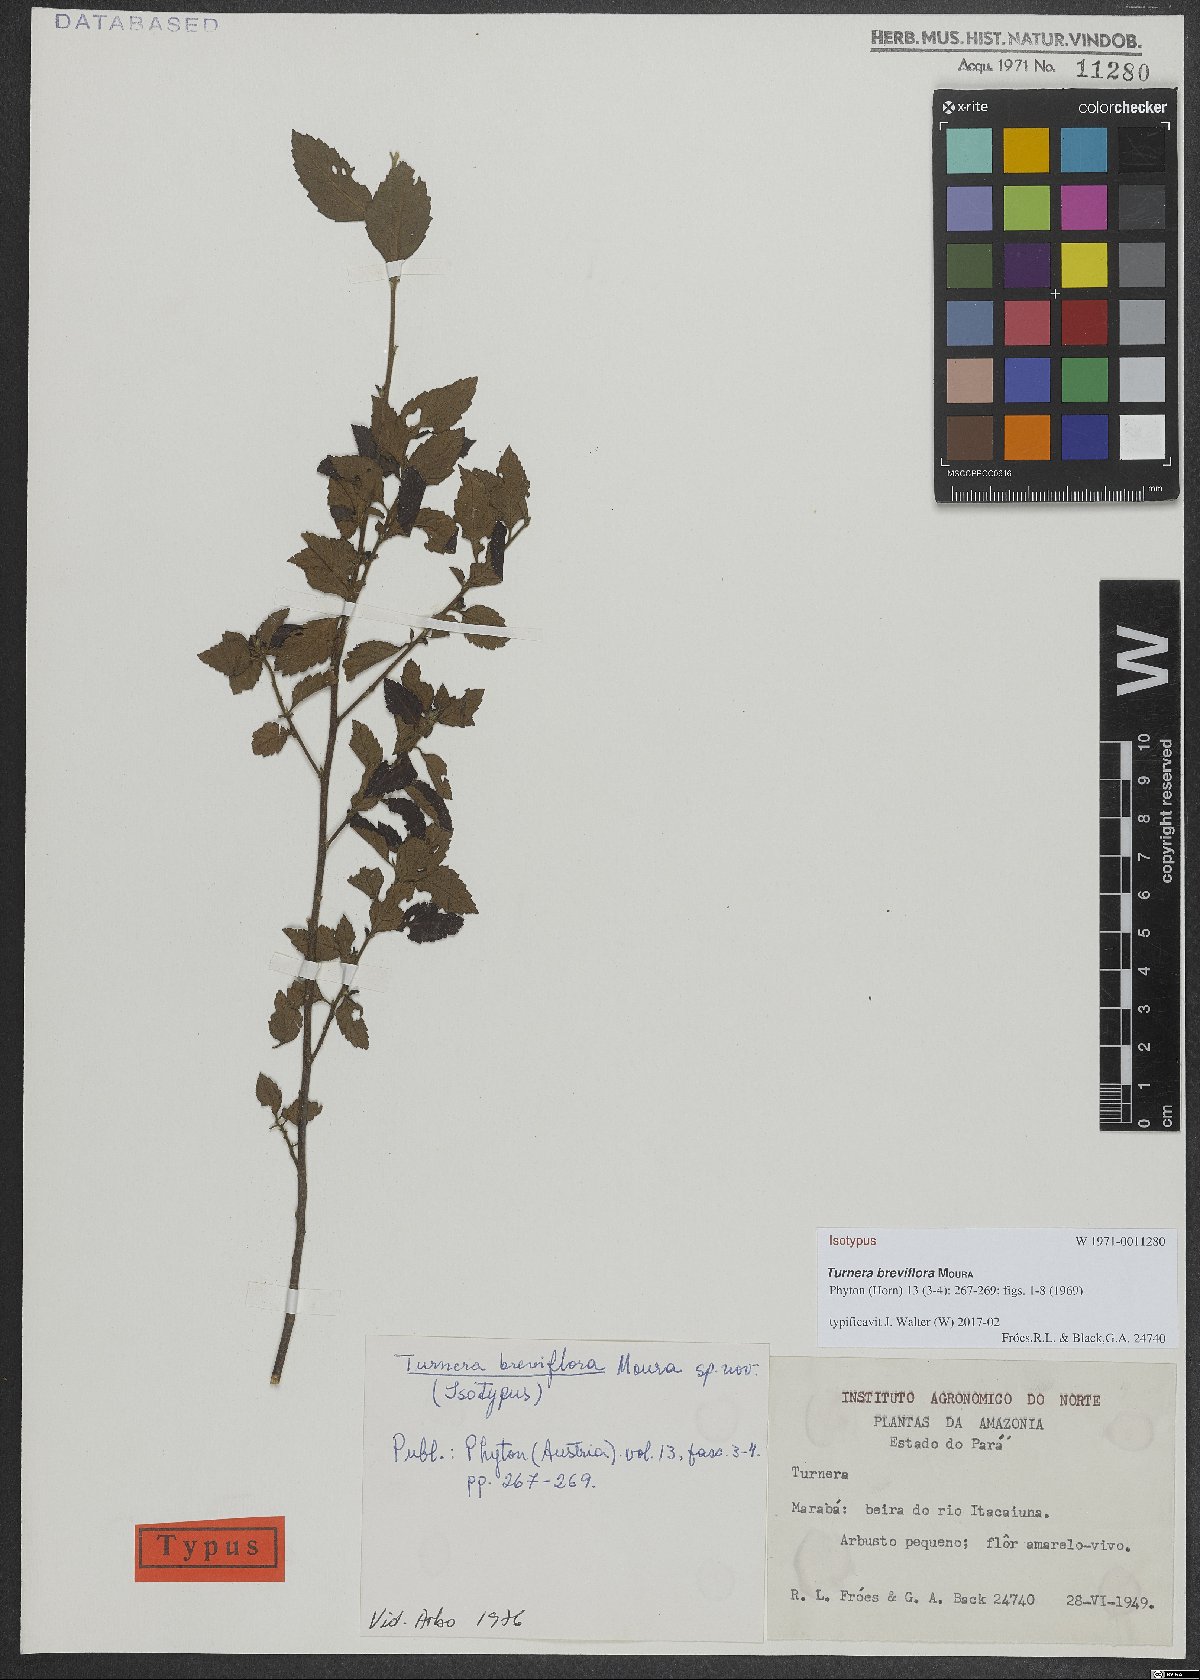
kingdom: Plantae
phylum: Tracheophyta
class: Magnoliopsida
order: Malpighiales
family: Turneraceae
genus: Turnera
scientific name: Turnera breviflora
